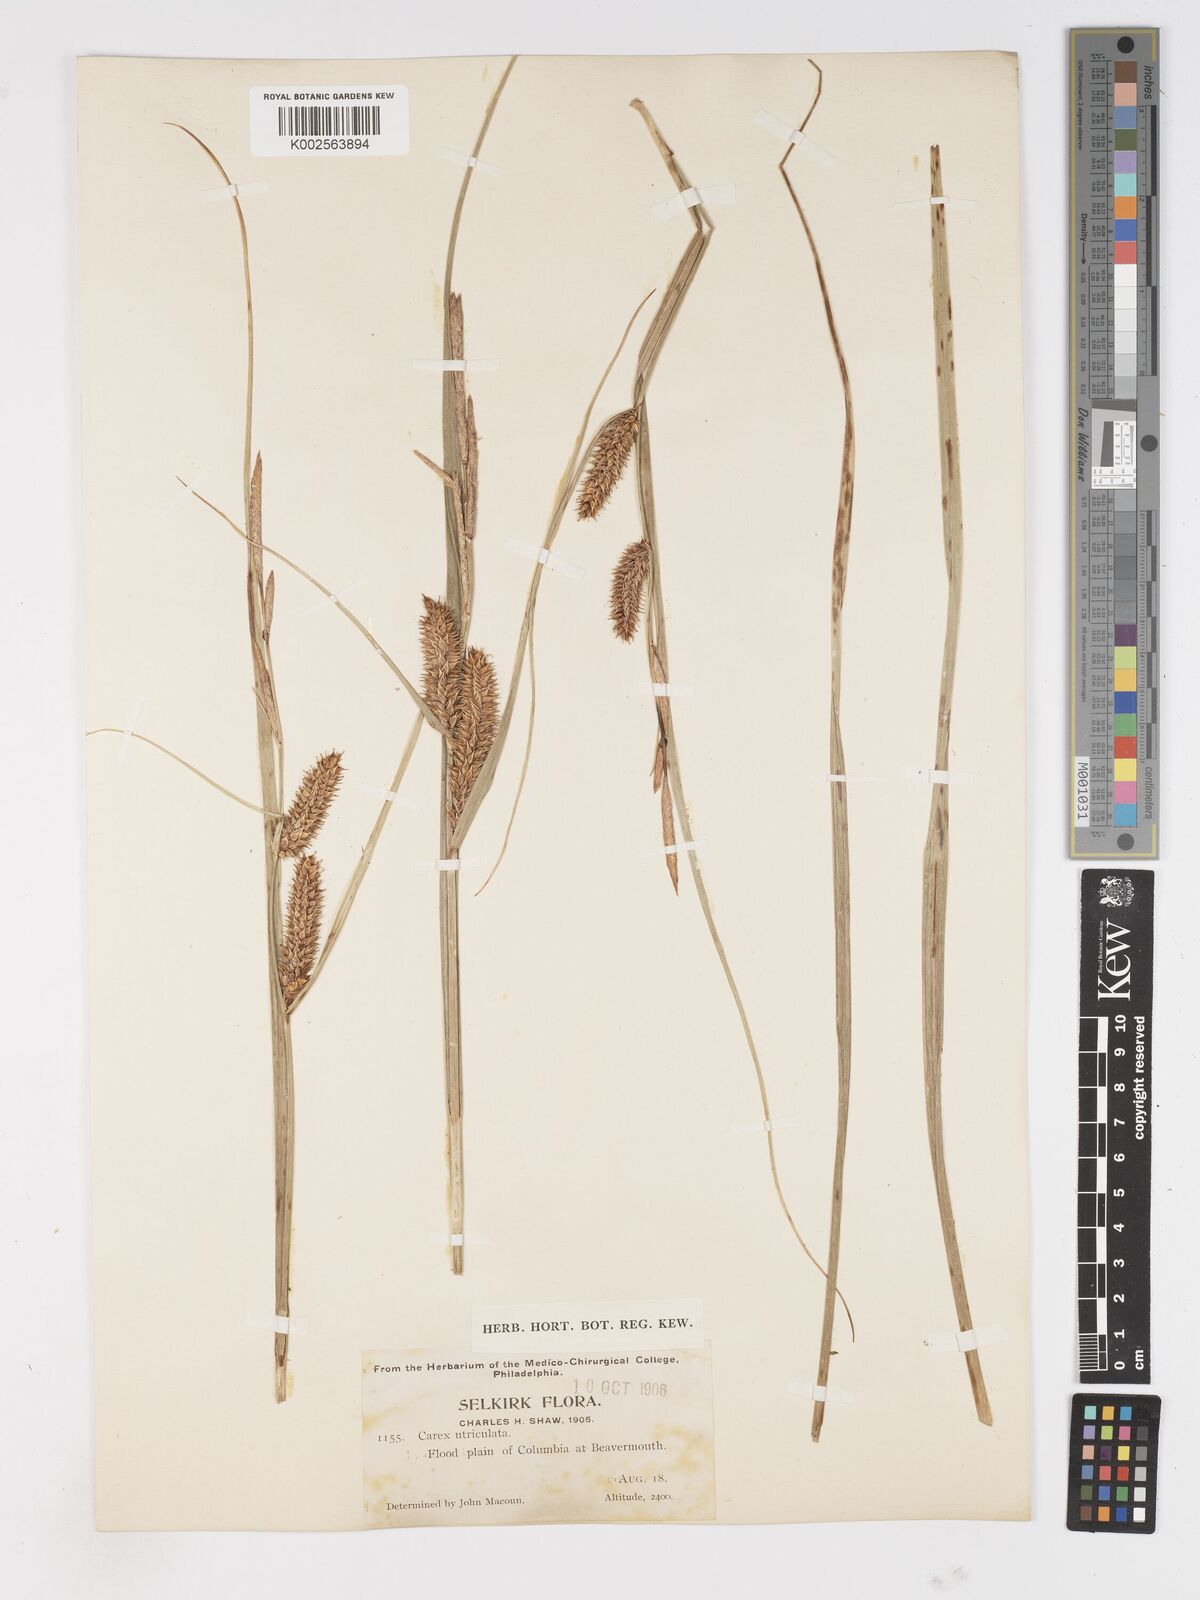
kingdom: Plantae
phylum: Tracheophyta
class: Liliopsida
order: Poales
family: Cyperaceae
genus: Carex
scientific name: Carex rostrata
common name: Bottle sedge
